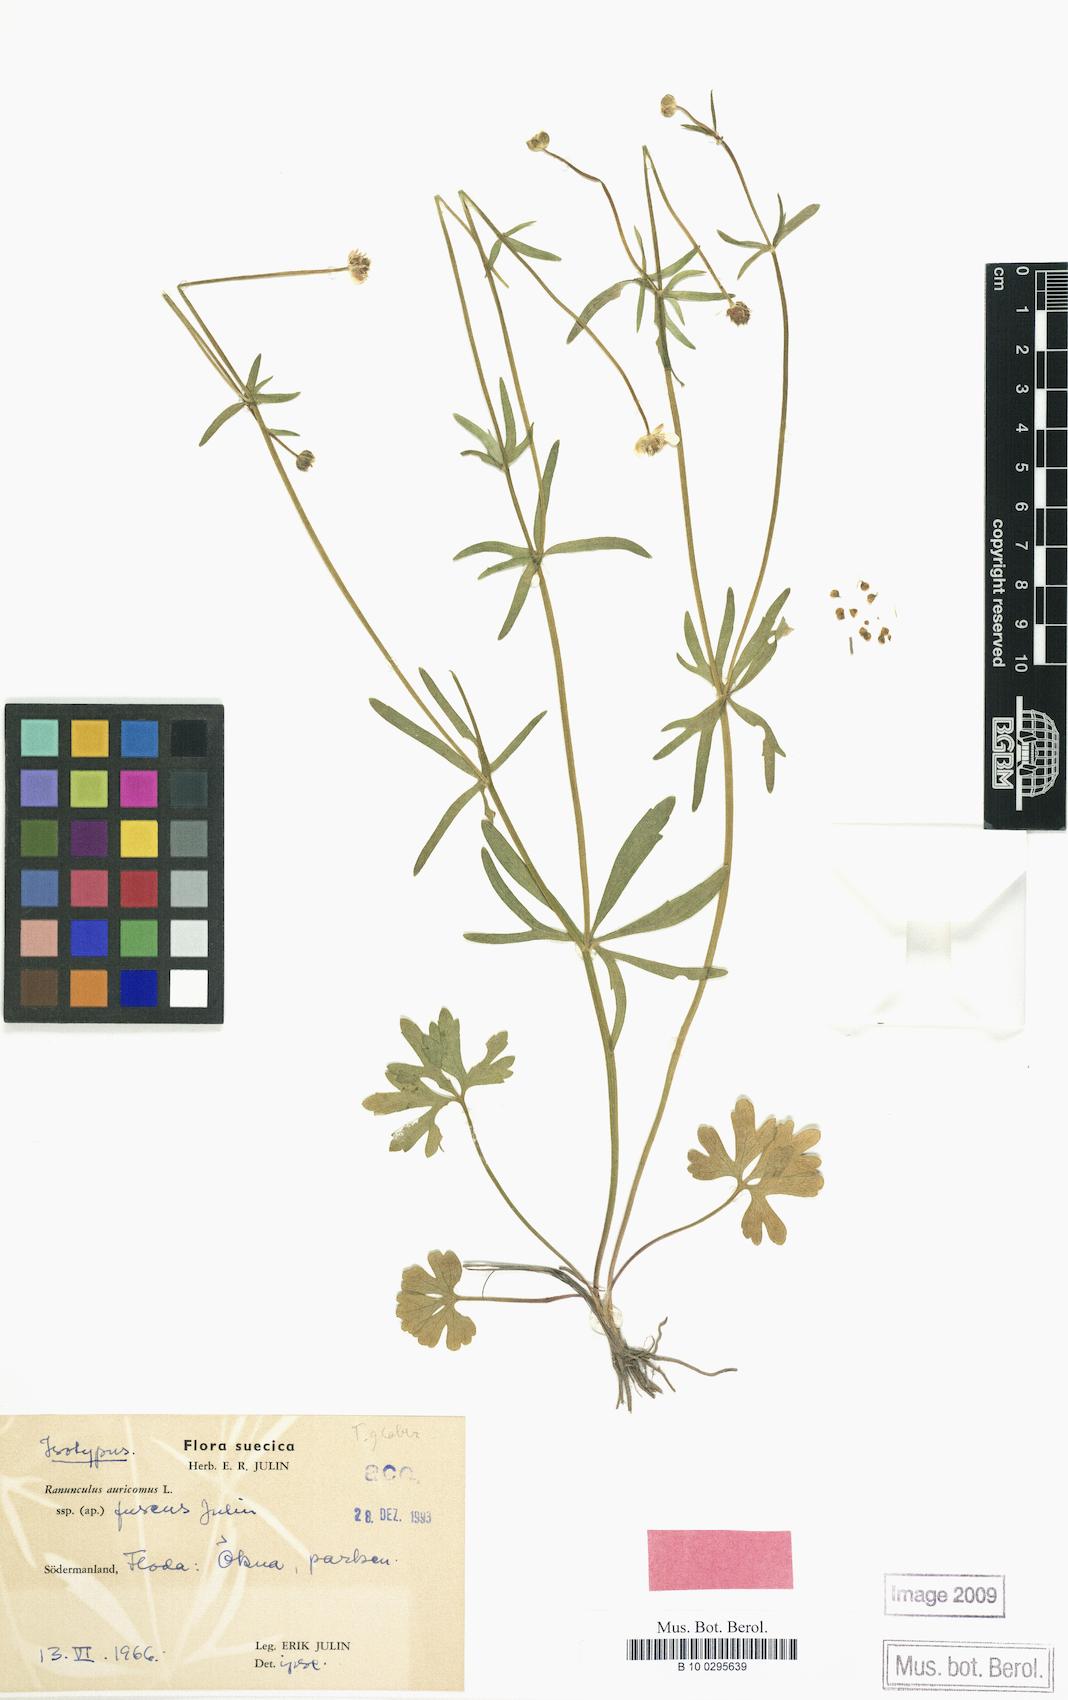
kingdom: Plantae
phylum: Tracheophyta
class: Magnoliopsida
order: Ranunculales
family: Ranunculaceae
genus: Ranunculus
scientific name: Ranunculus fuscus
